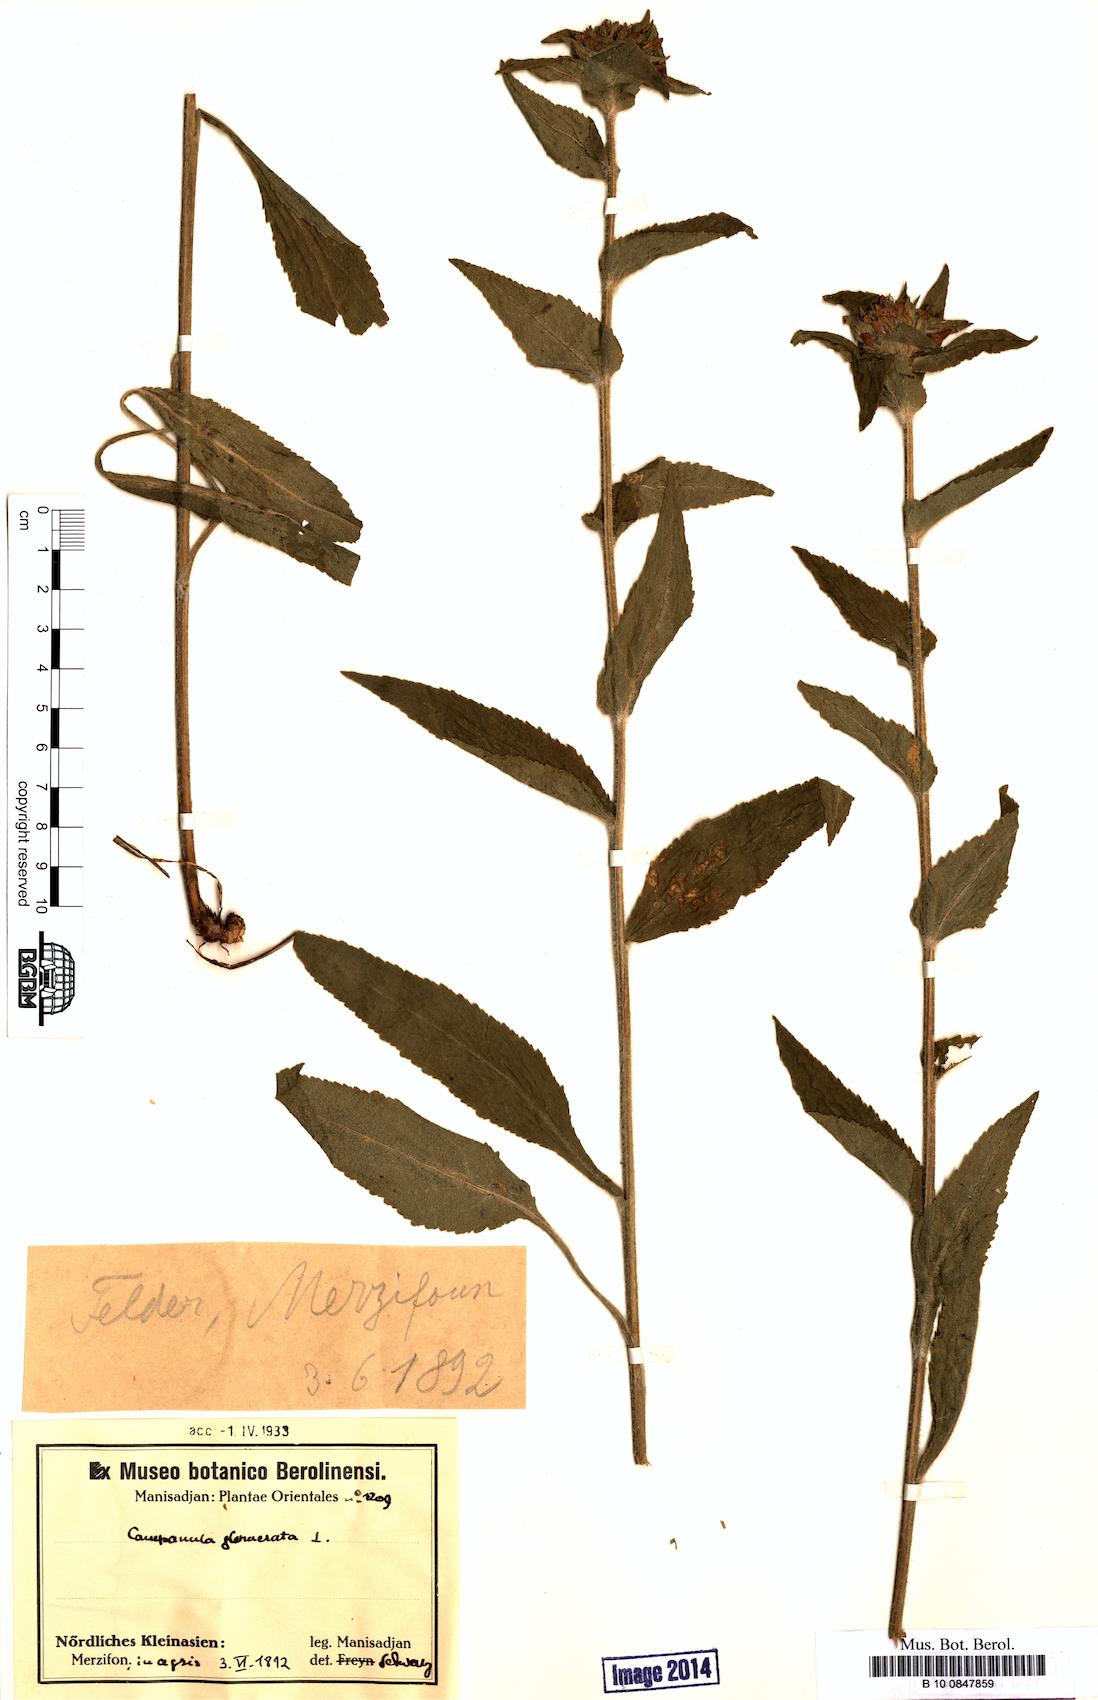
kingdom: Plantae
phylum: Tracheophyta
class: Magnoliopsida
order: Asterales
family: Campanulaceae
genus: Campanula
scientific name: Campanula glomerata
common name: Clustered bellflower
